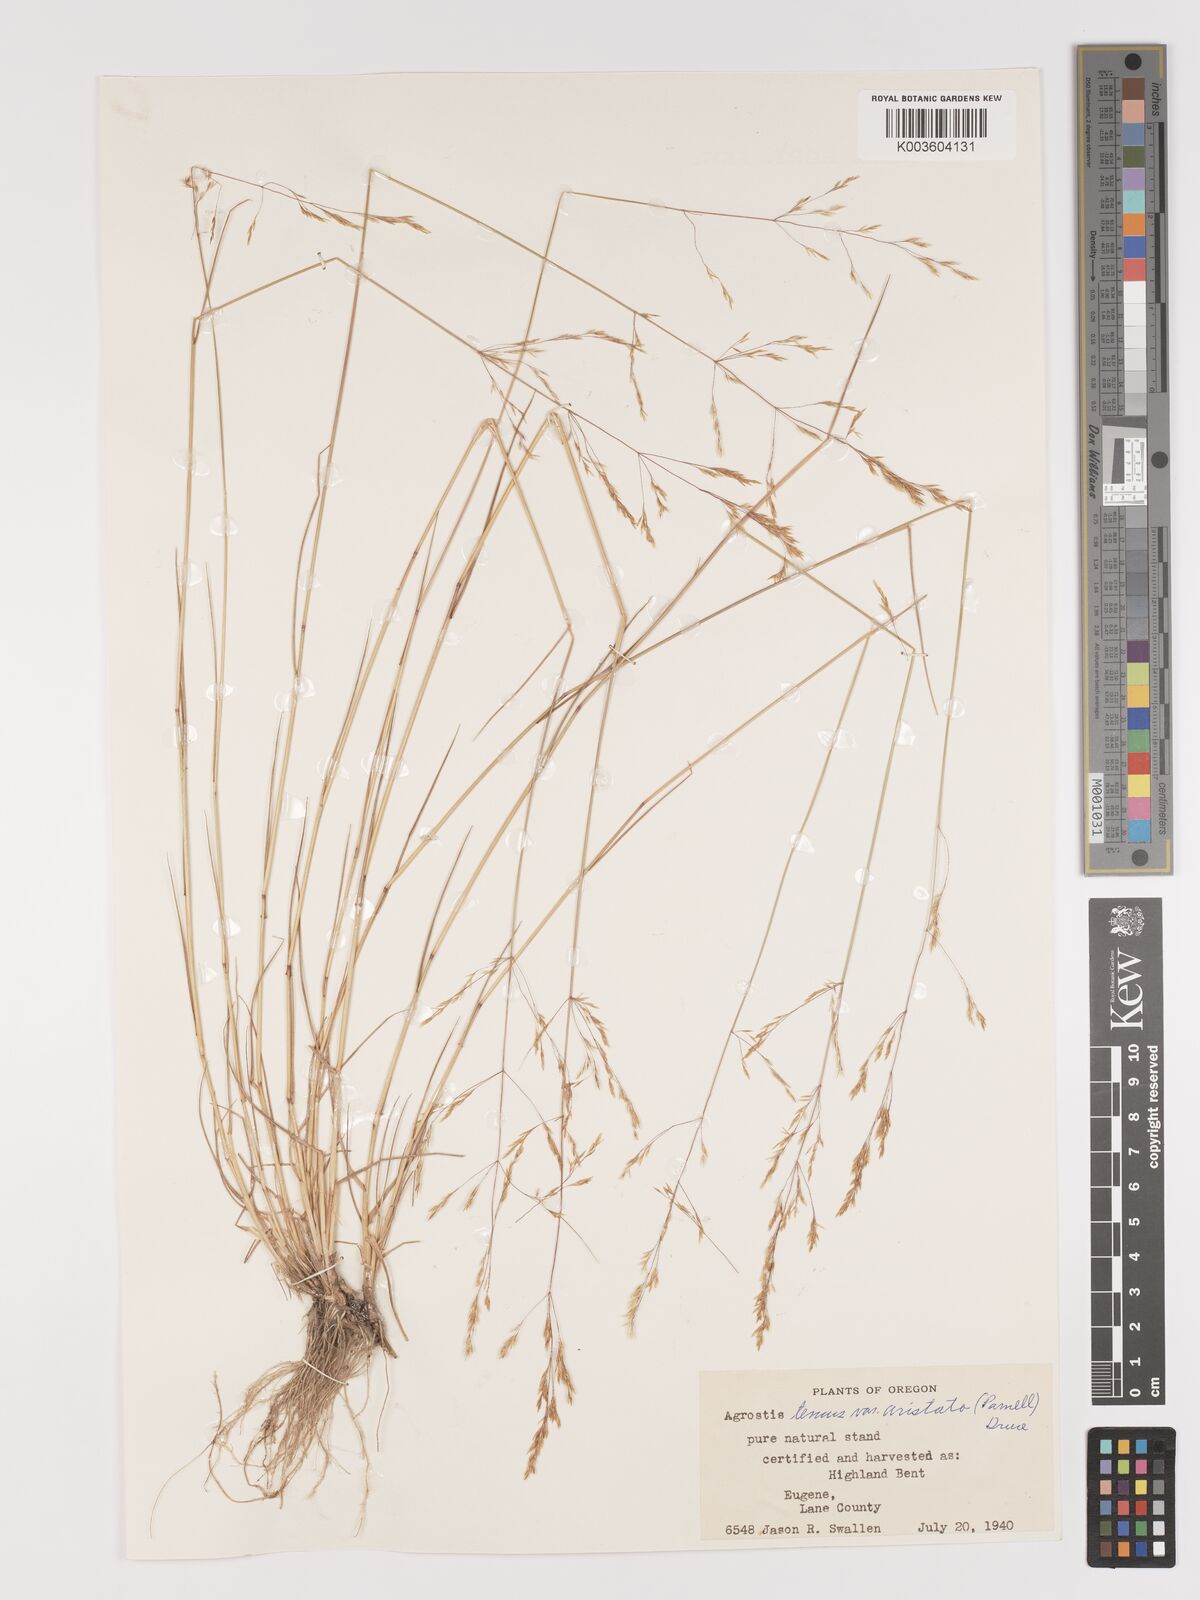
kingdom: Plantae
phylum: Tracheophyta
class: Liliopsida
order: Poales
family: Poaceae
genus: Agrostis
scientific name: Agrostis capillaris
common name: Colonial bentgrass
